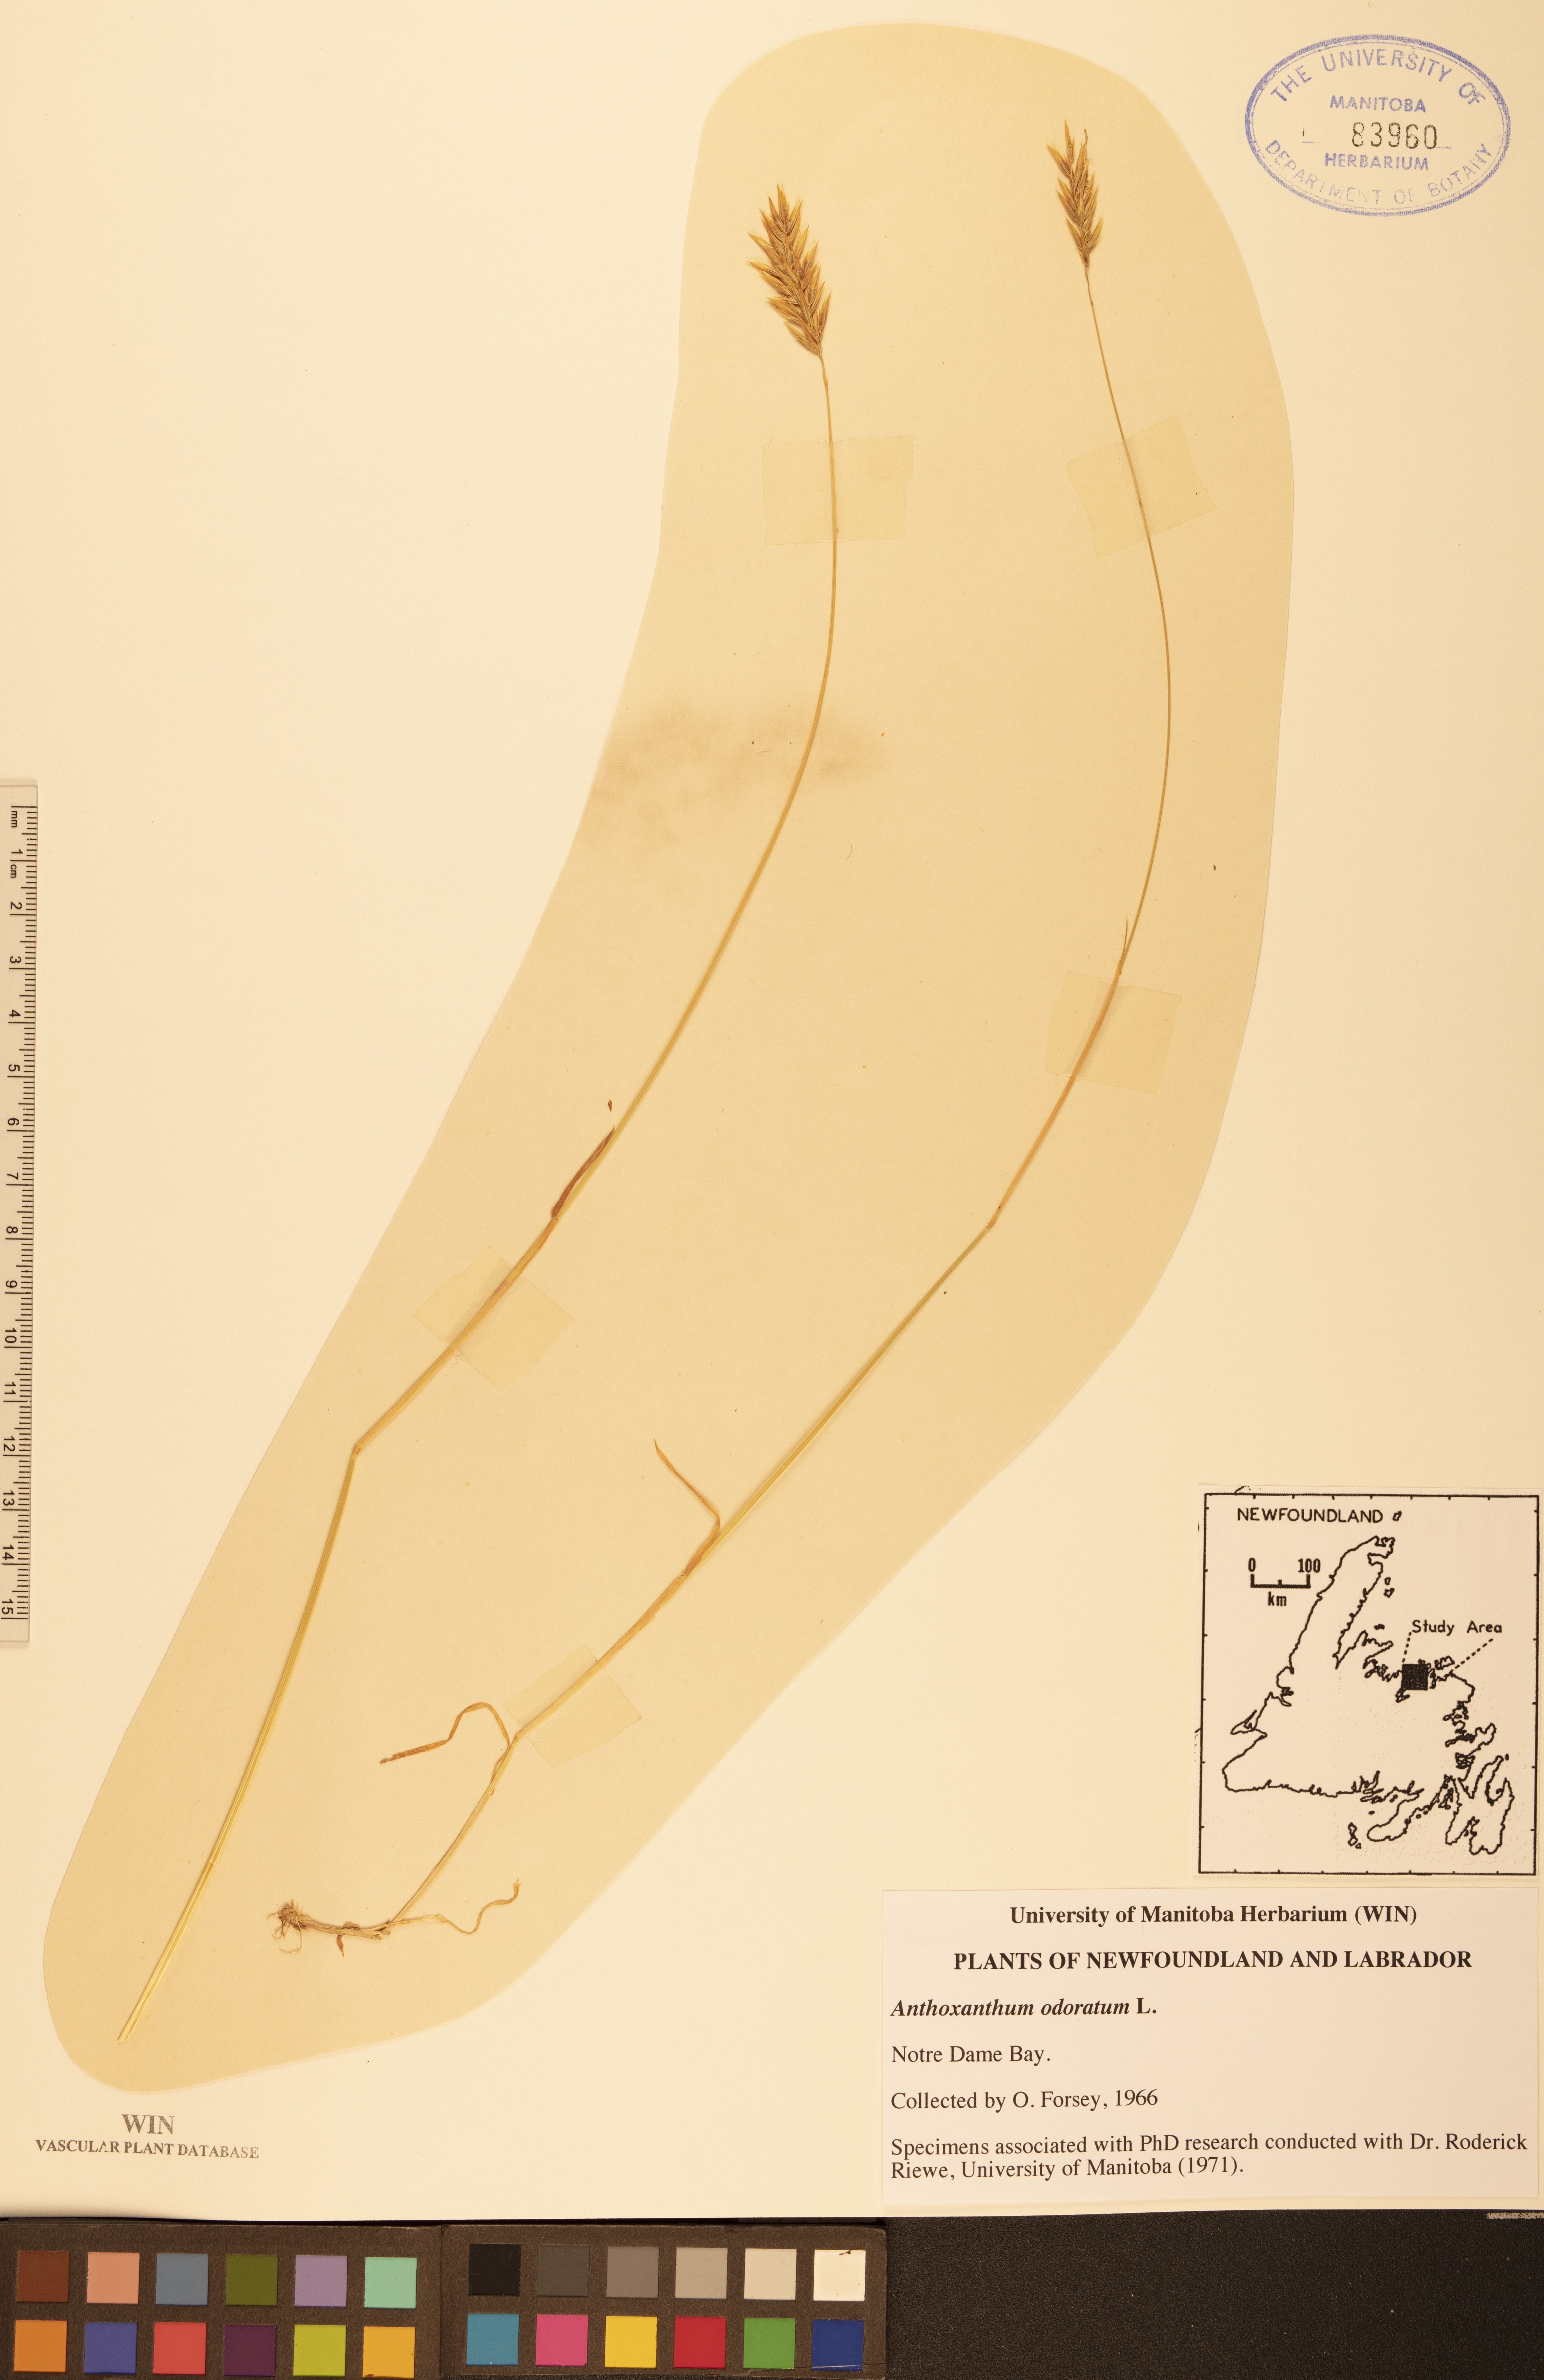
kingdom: Plantae
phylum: Tracheophyta
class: Liliopsida
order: Poales
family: Poaceae
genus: Anthoxanthum
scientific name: Anthoxanthum odoratum
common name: Sweet vernalgrass
